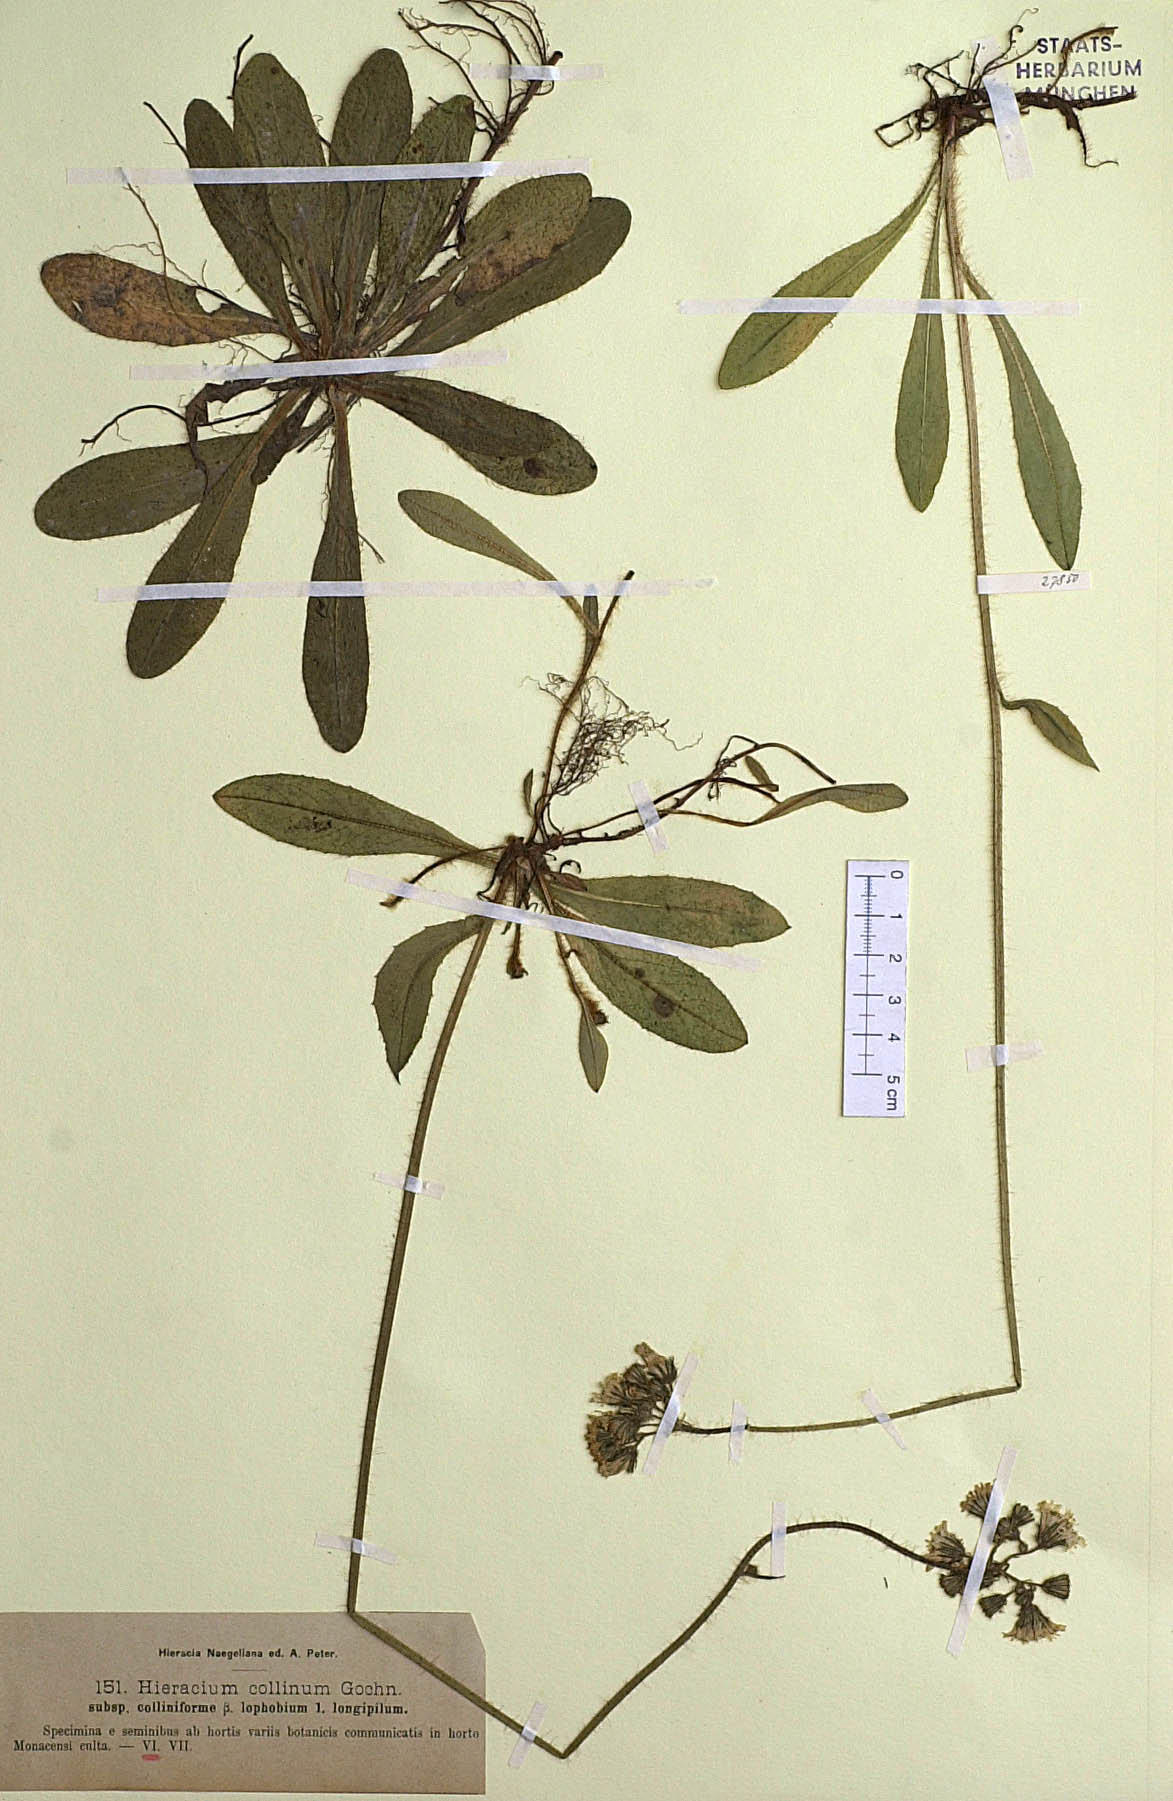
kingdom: Plantae
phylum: Tracheophyta
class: Magnoliopsida
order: Asterales
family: Asteraceae
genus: Pilosella
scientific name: Pilosella caespitosa
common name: Yellow fox-and-cubs
